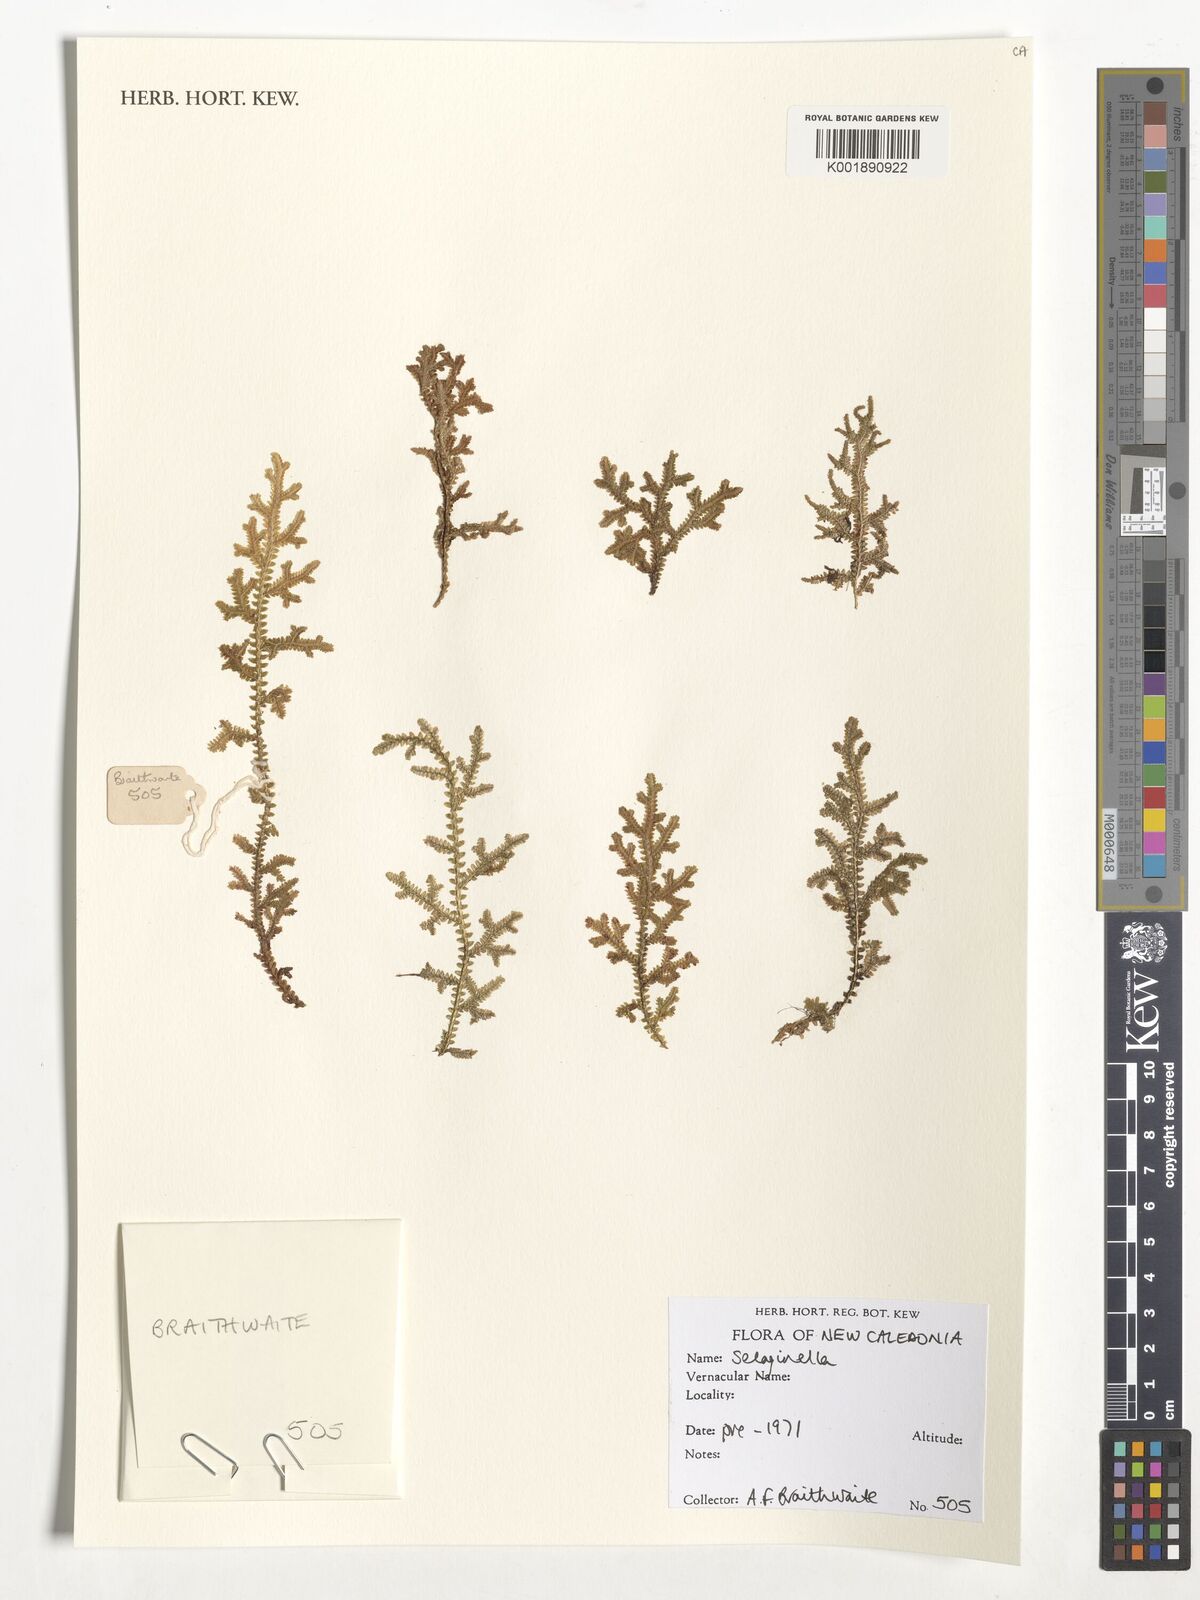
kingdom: Plantae
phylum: Tracheophyta
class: Lycopodiopsida
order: Selaginellales
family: Selaginellaceae
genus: Selaginella
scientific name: Selaginella
